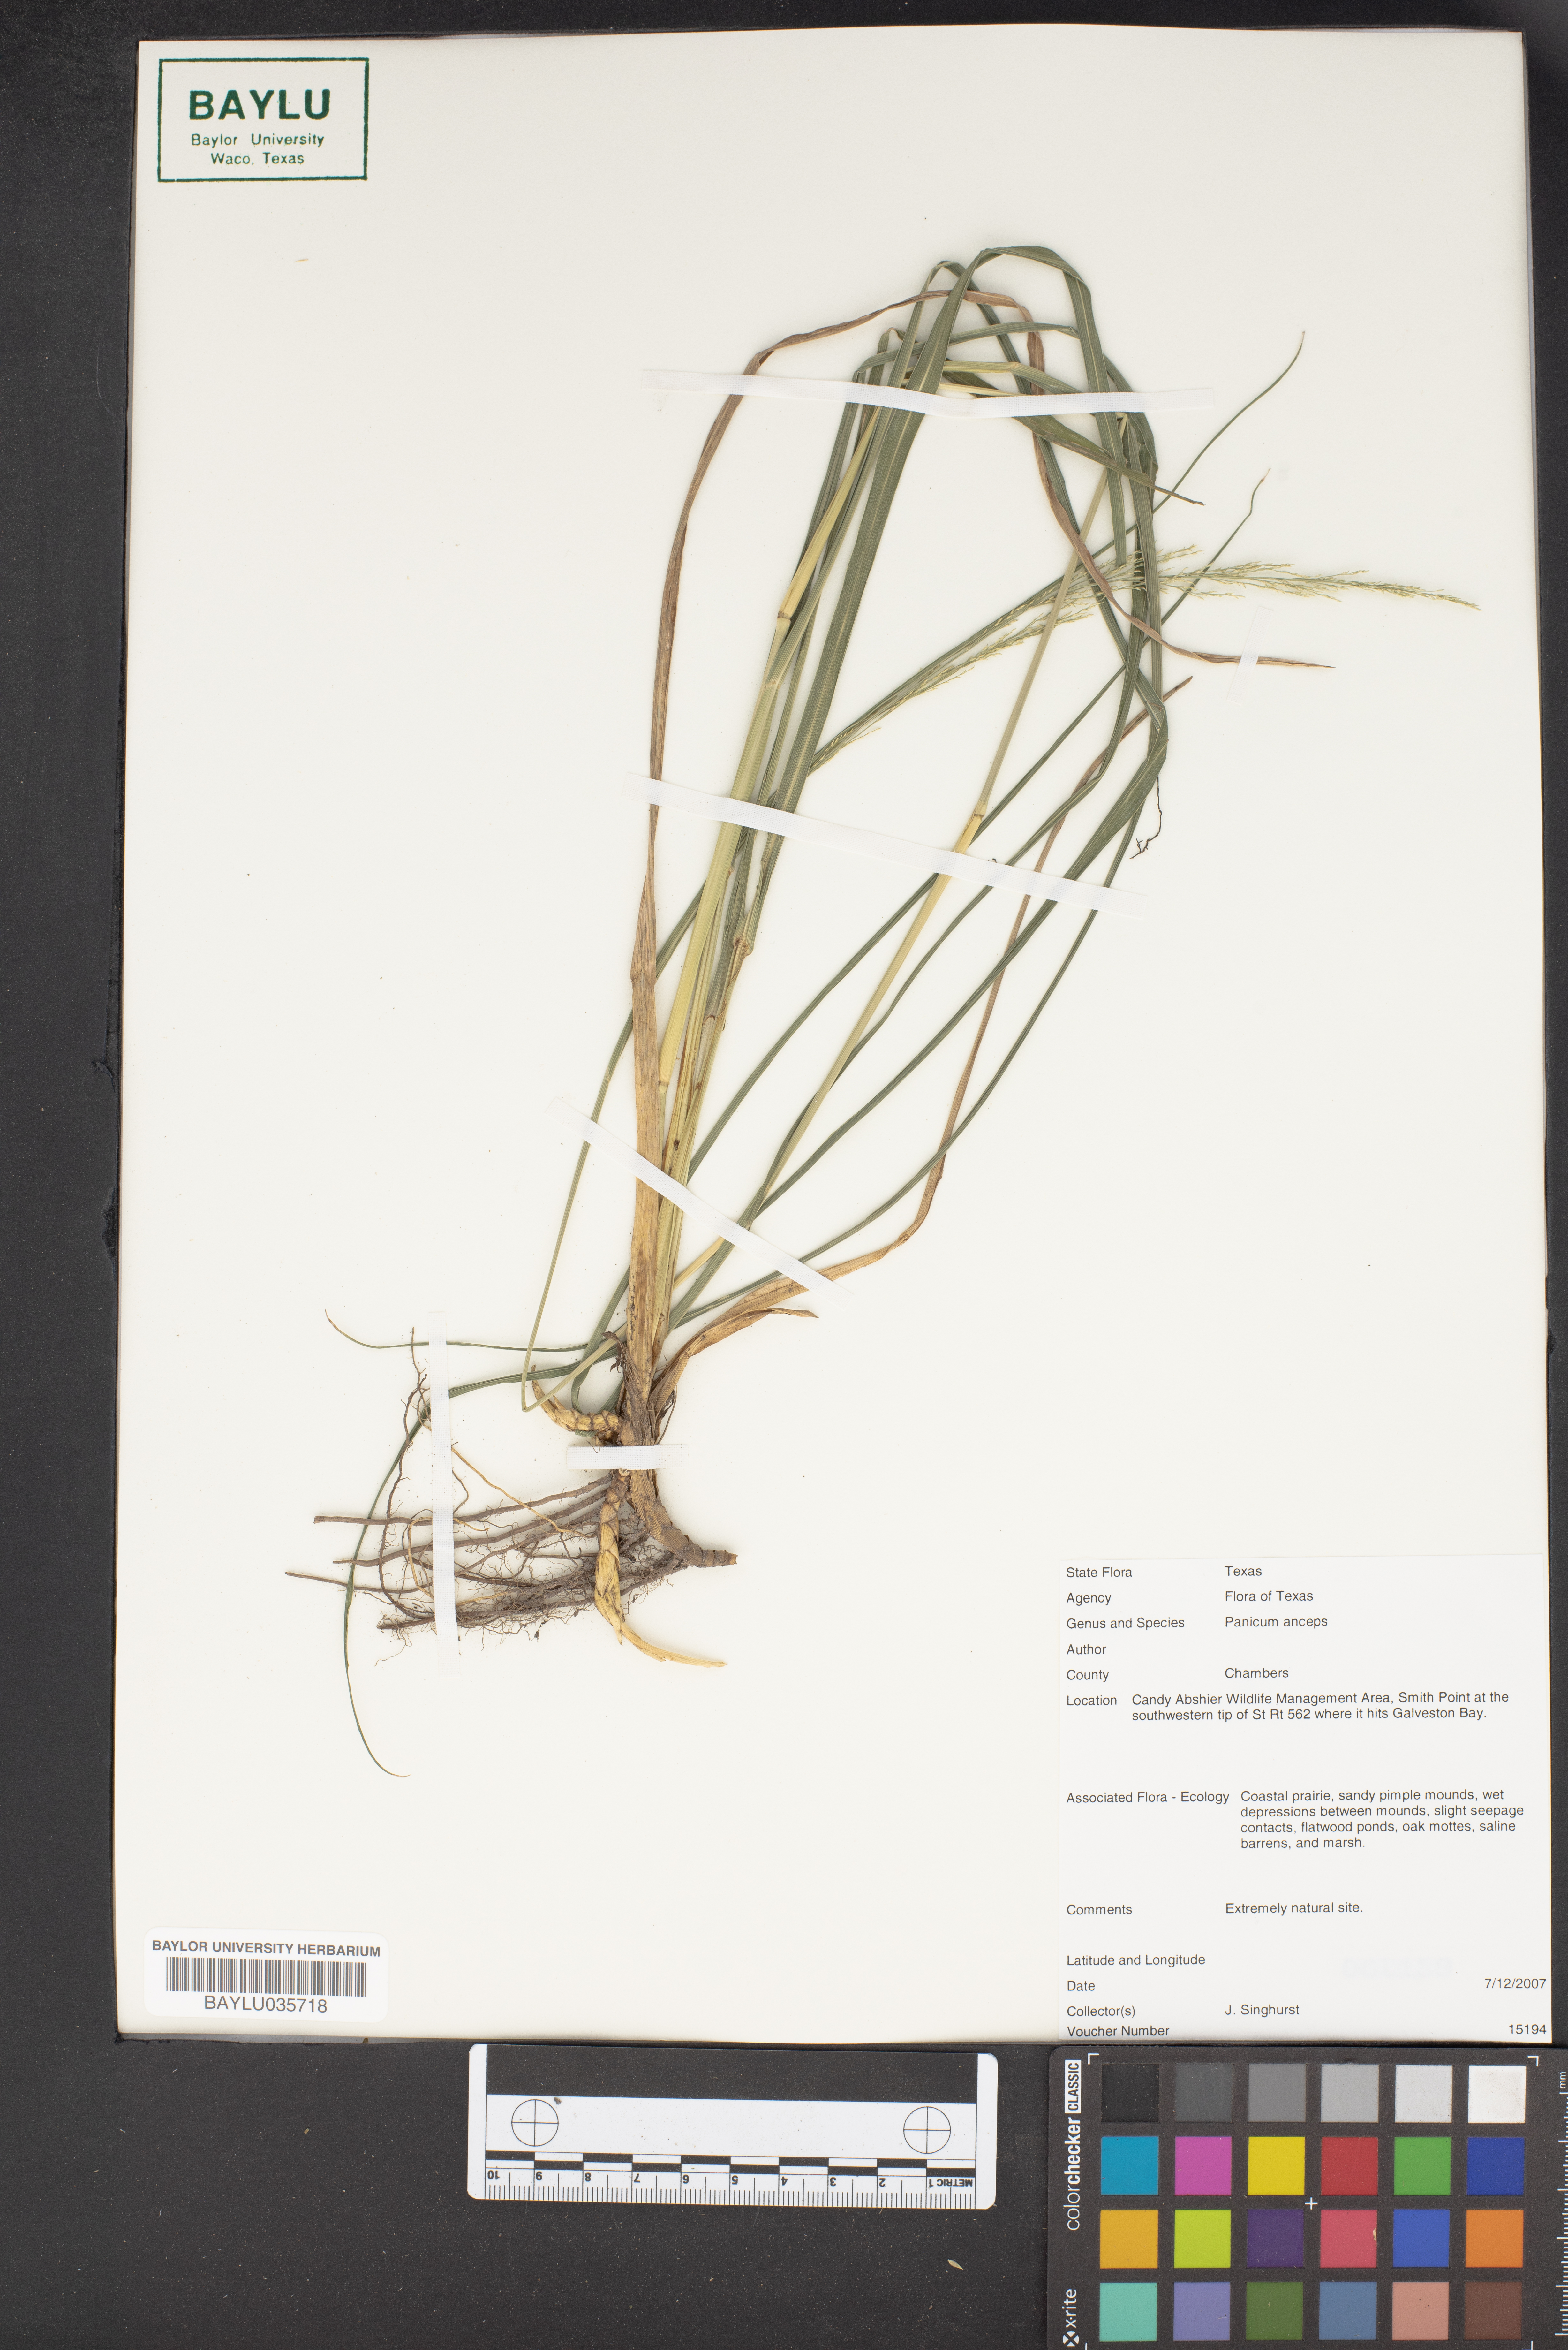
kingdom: Plantae
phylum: Tracheophyta
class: Liliopsida
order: Poales
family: Poaceae
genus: Coleataenia
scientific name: Coleataenia anceps
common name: Beaked panic grass
